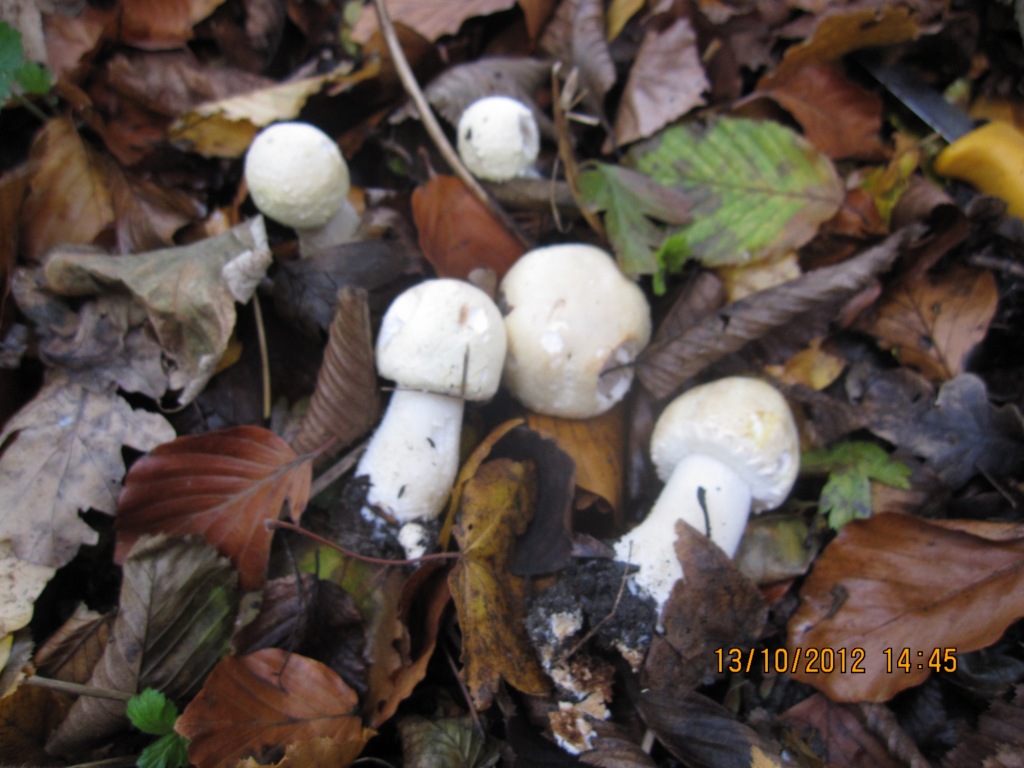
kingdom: Fungi
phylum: Basidiomycota
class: Agaricomycetes
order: Agaricales
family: Agaricaceae
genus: Agaricus
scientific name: Agaricus macrocarpus
